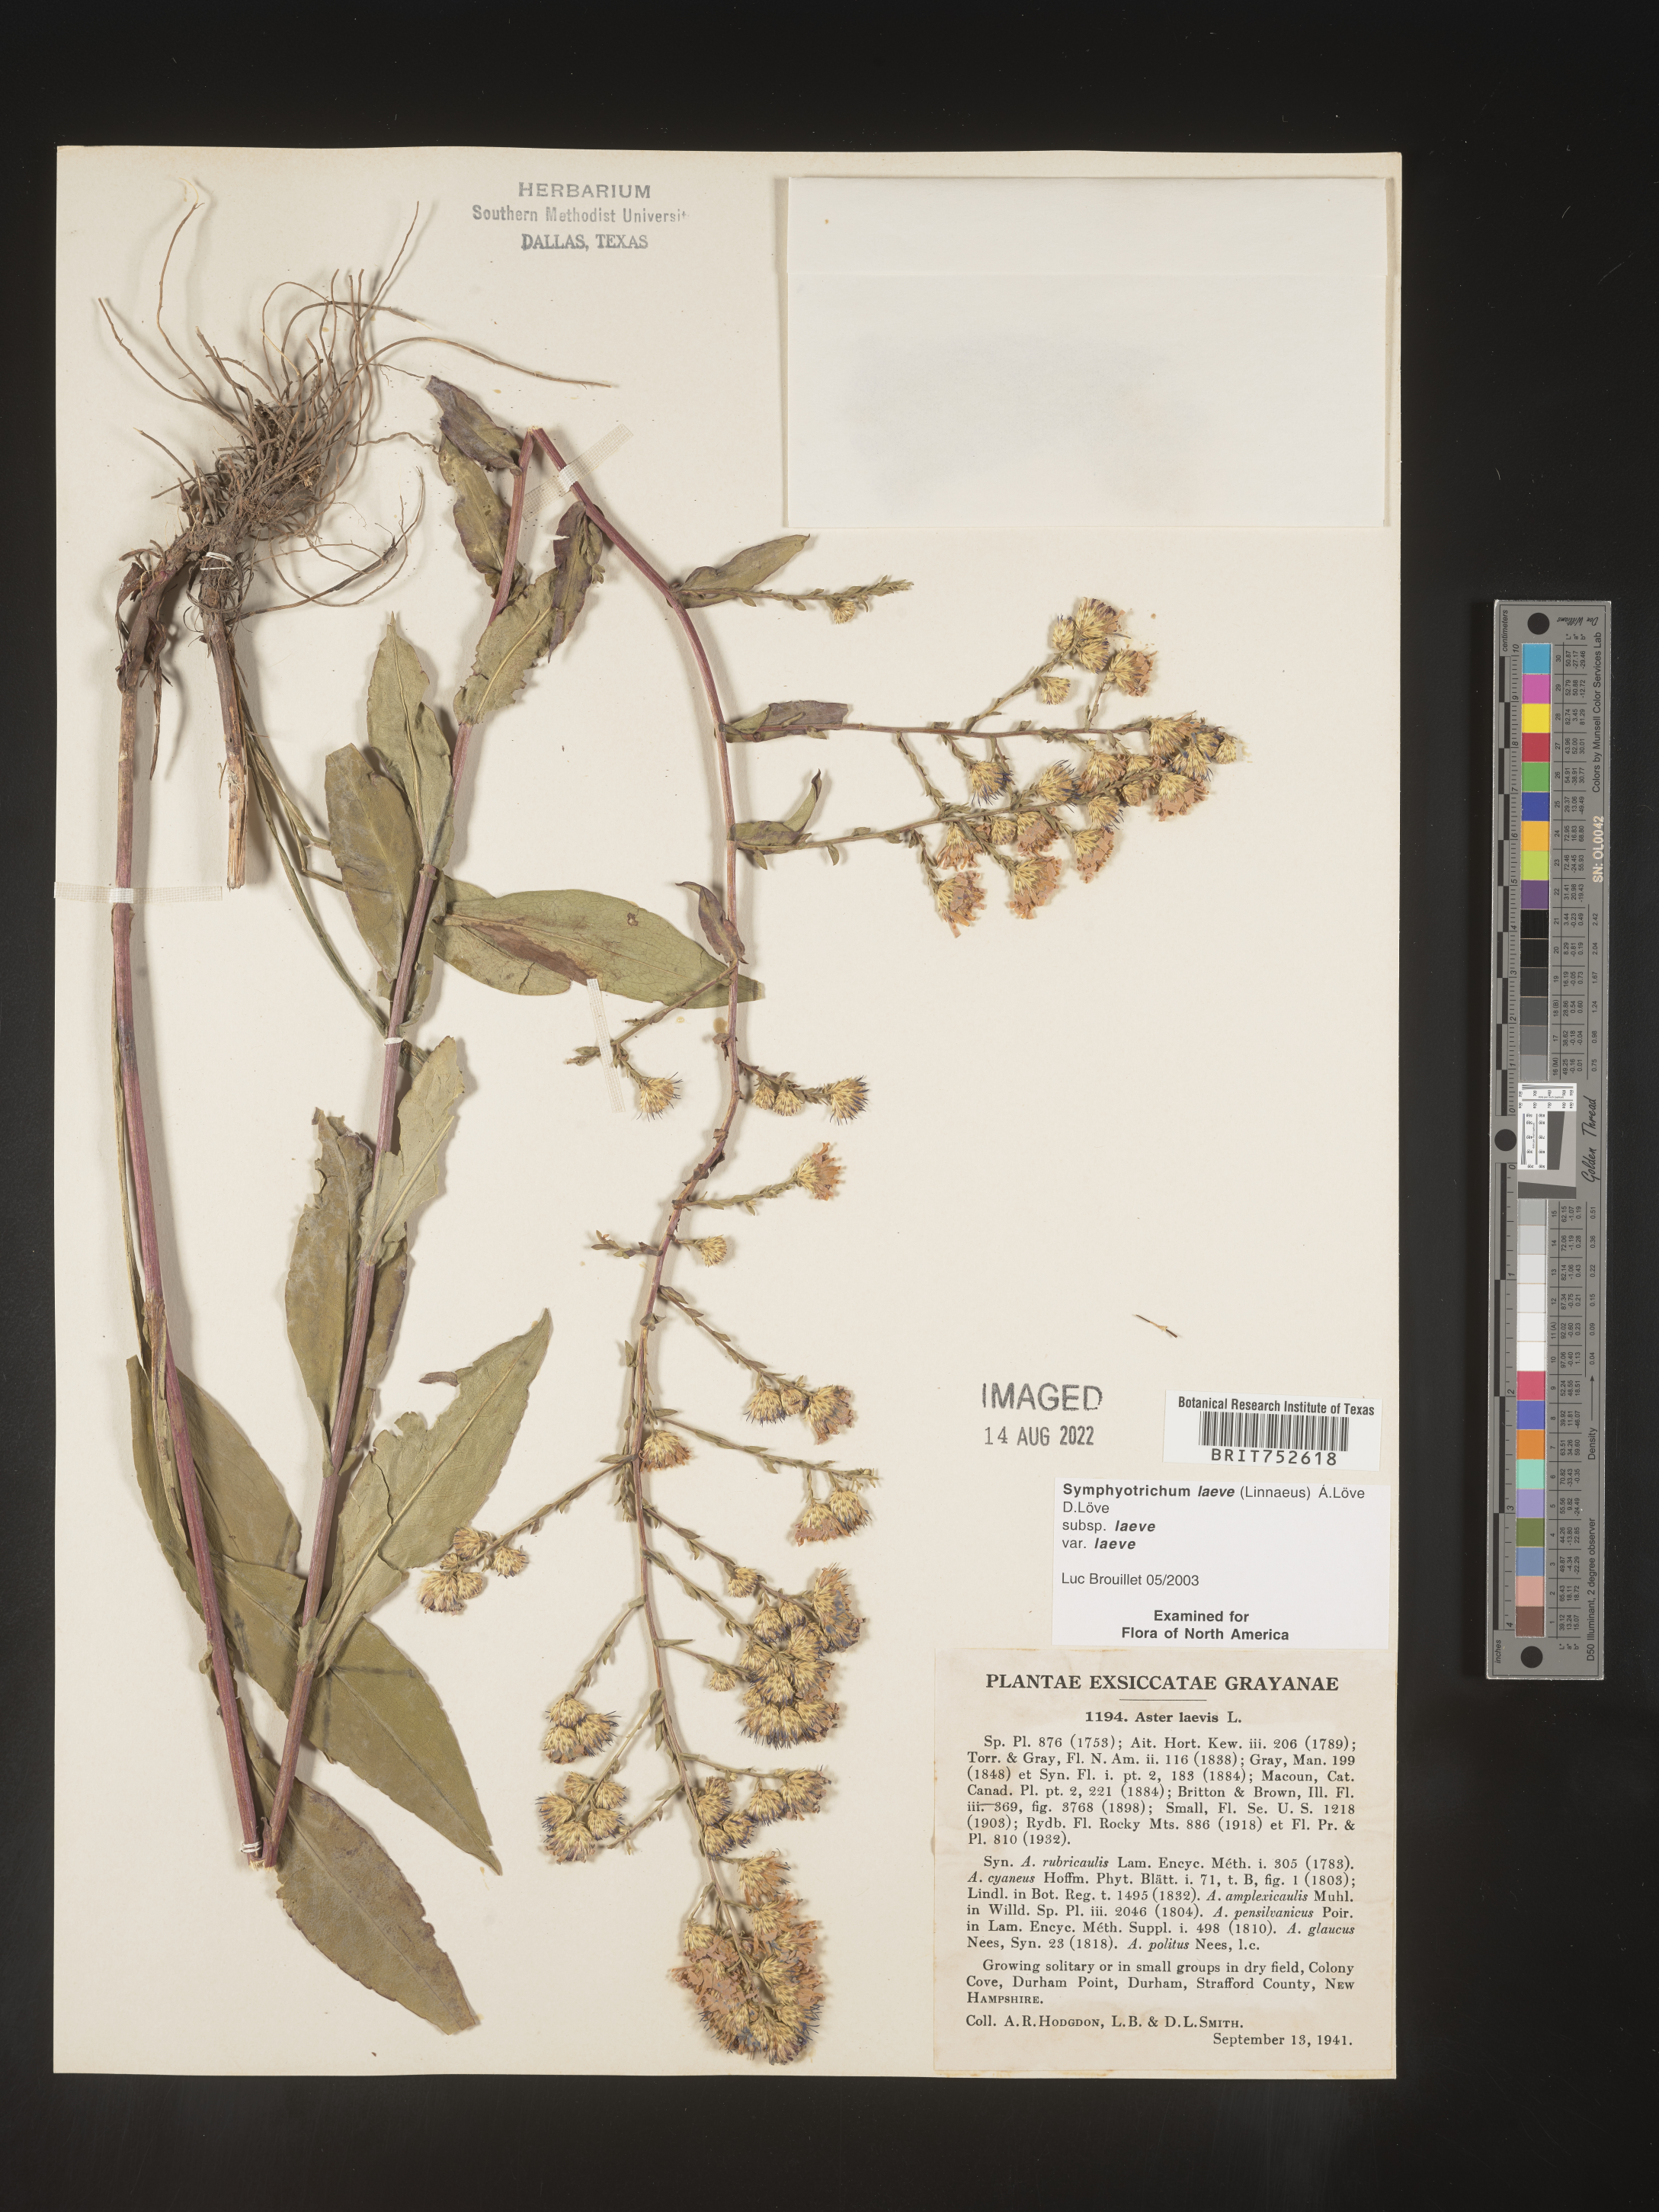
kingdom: Plantae
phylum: Tracheophyta
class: Magnoliopsida
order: Asterales
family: Asteraceae
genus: Symphyotrichum
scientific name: Symphyotrichum laeve
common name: Glaucous aster
